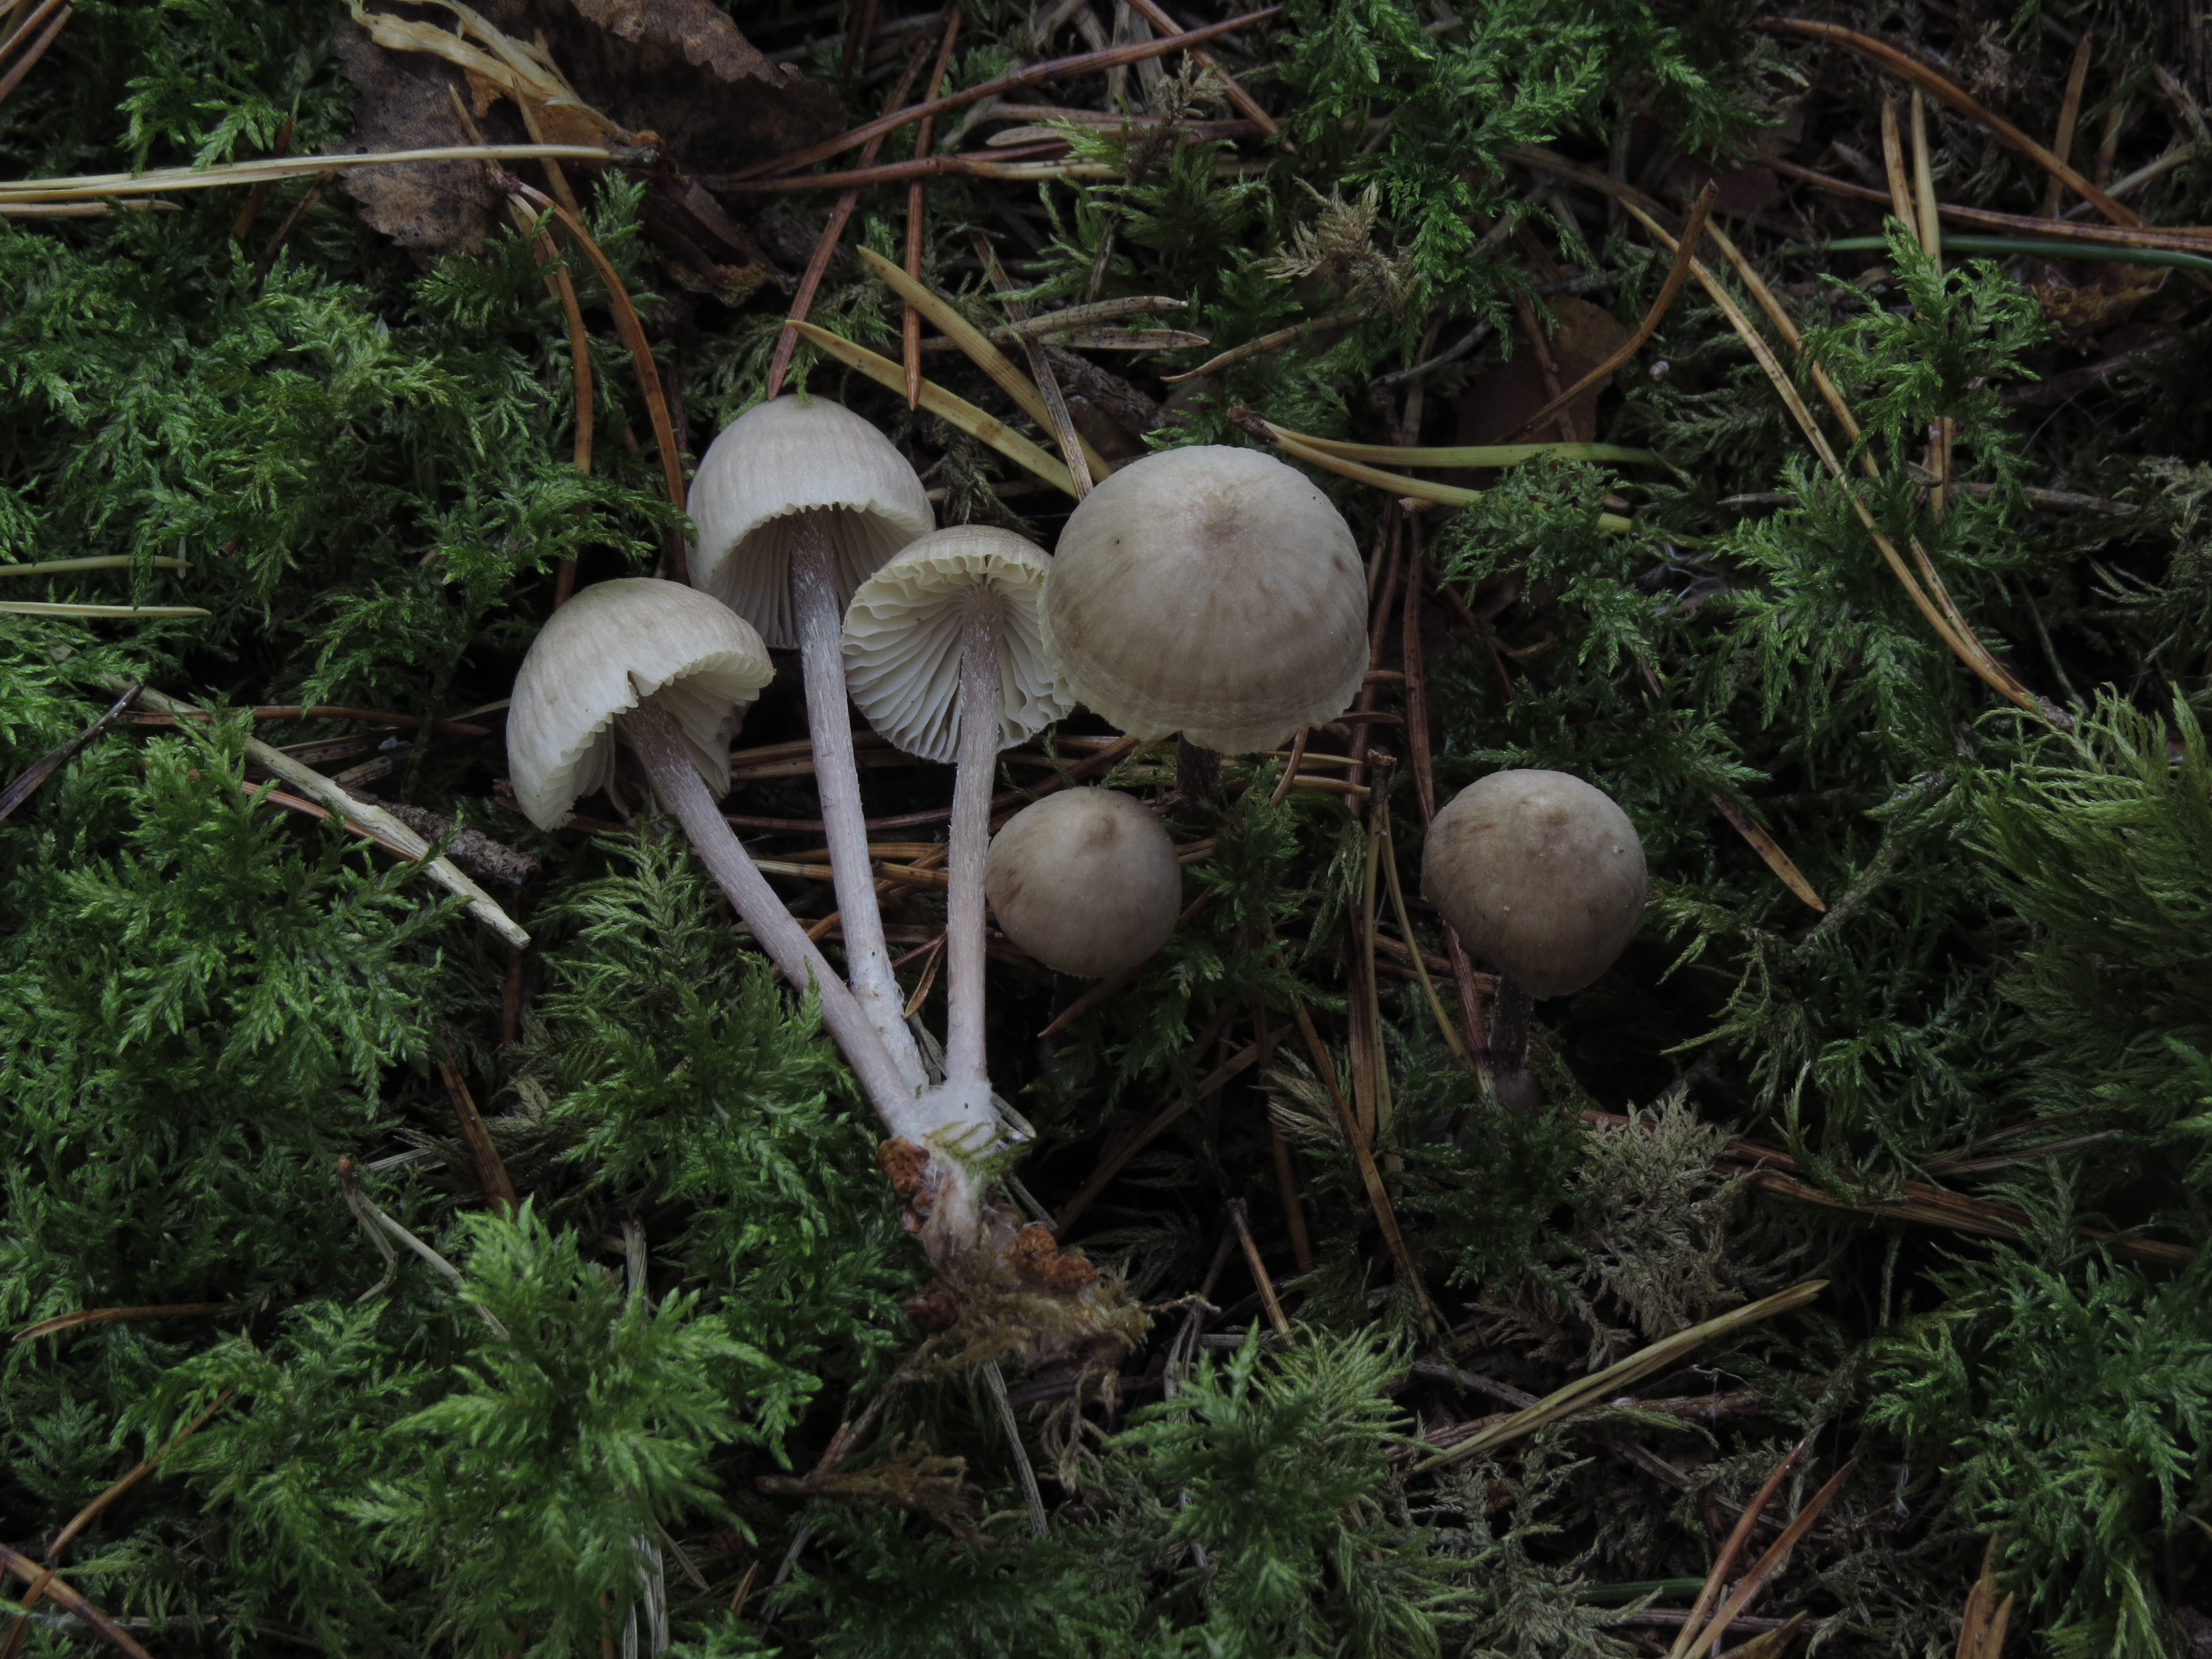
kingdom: Fungi
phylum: Basidiomycota
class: Agaricomycetes
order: Agaricales
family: Mycenaceae
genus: Mycena
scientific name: Mycena zephirus
